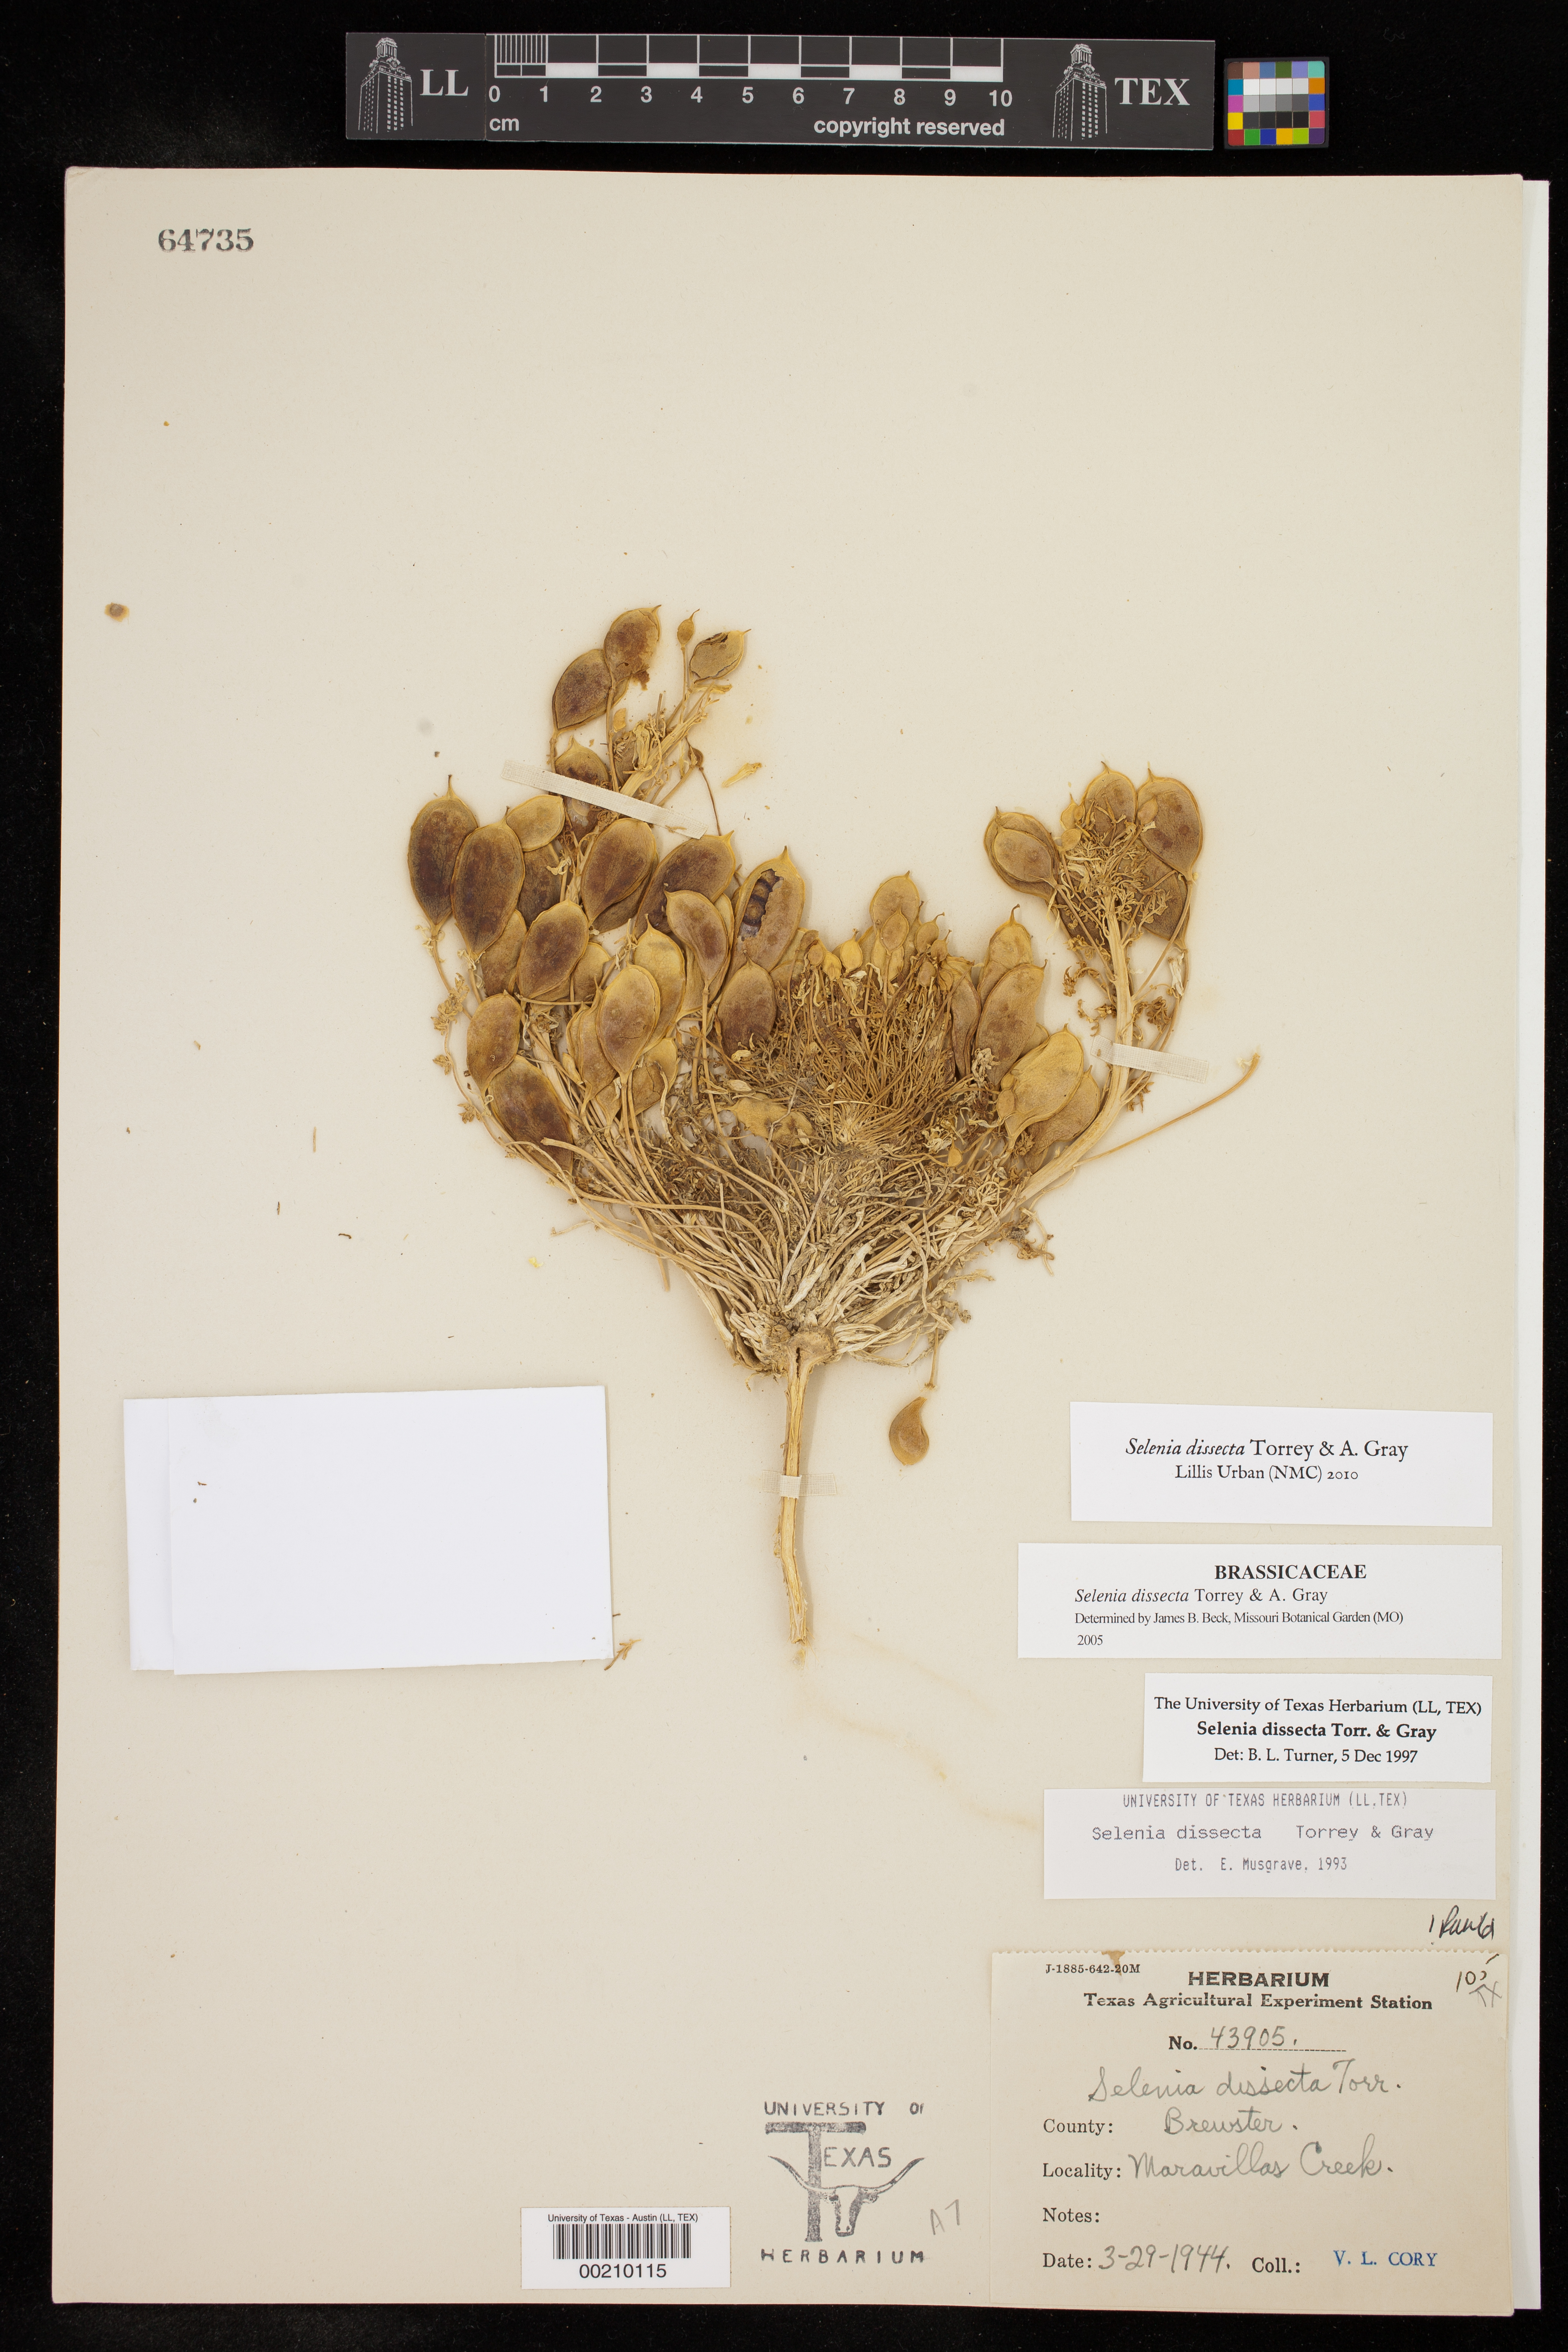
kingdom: Plantae
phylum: Tracheophyta
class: Magnoliopsida
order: Brassicales
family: Brassicaceae
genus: Selenia
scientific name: Selenia dissecta
